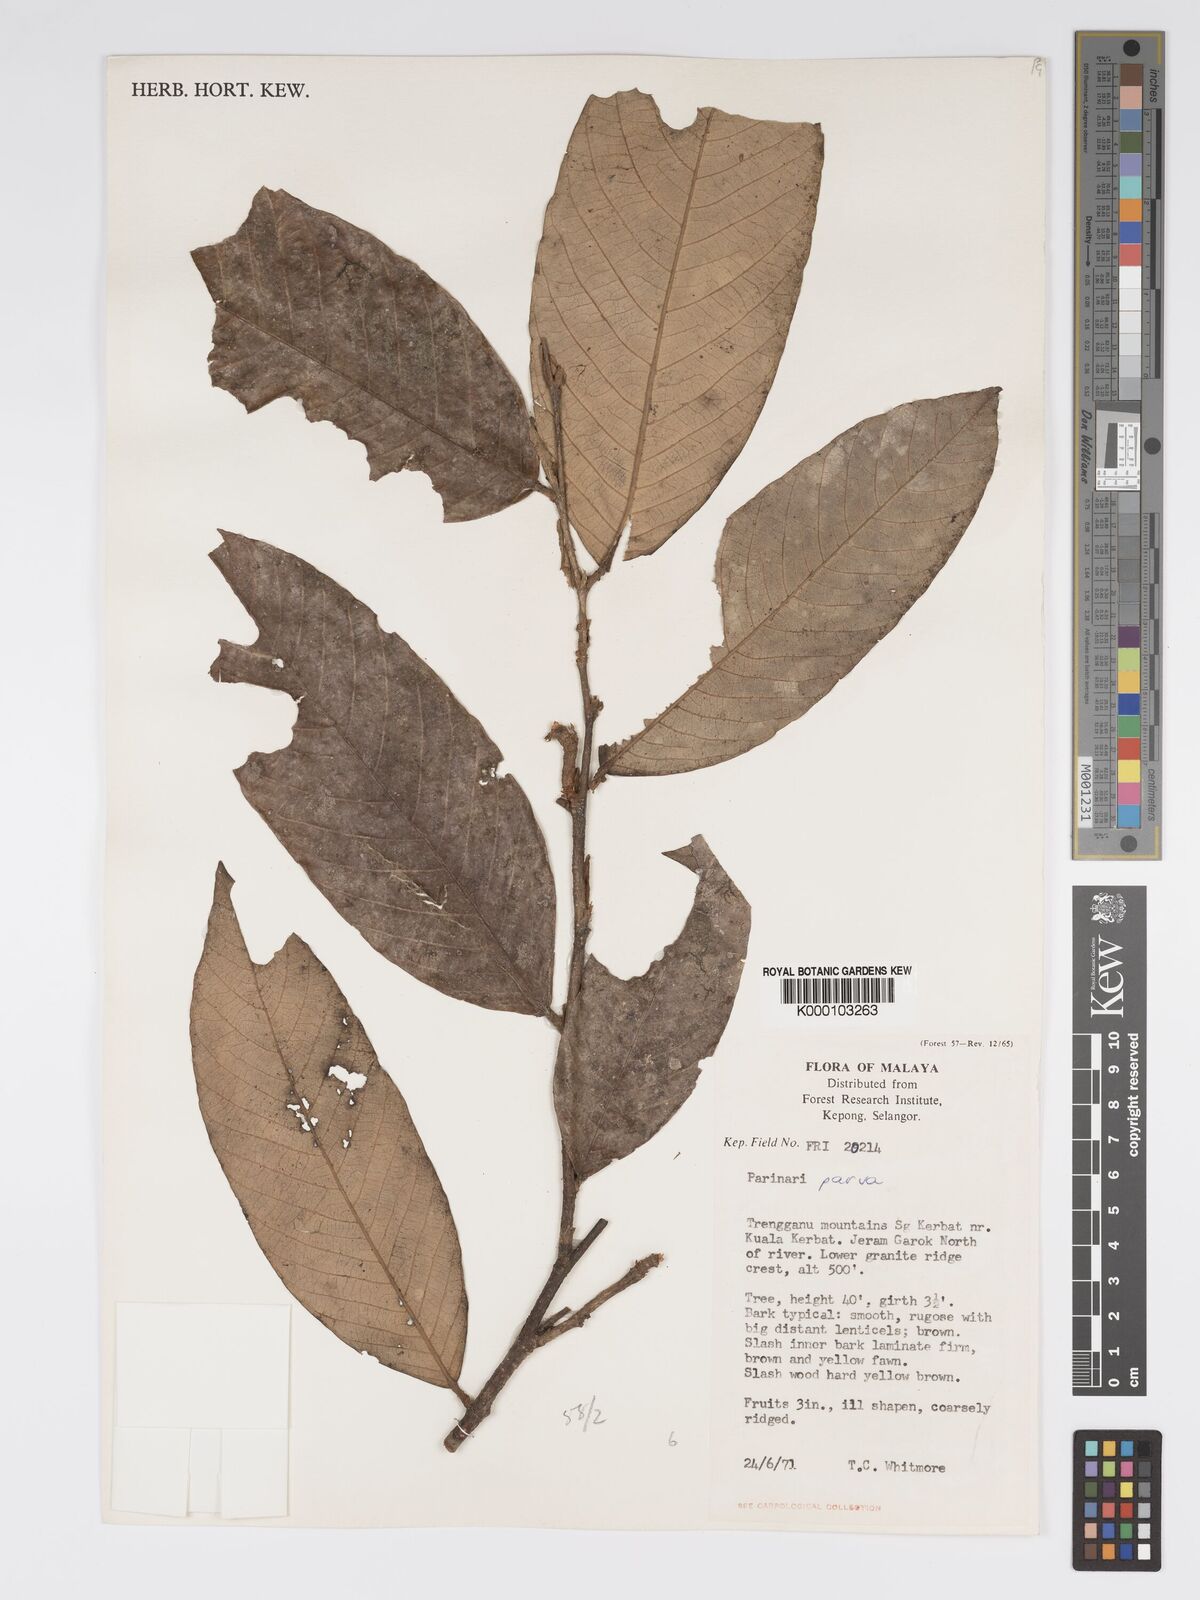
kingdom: Plantae
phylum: Tracheophyta
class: Magnoliopsida
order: Malpighiales
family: Chrysobalanaceae
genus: Parinari
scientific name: Parinari parva
